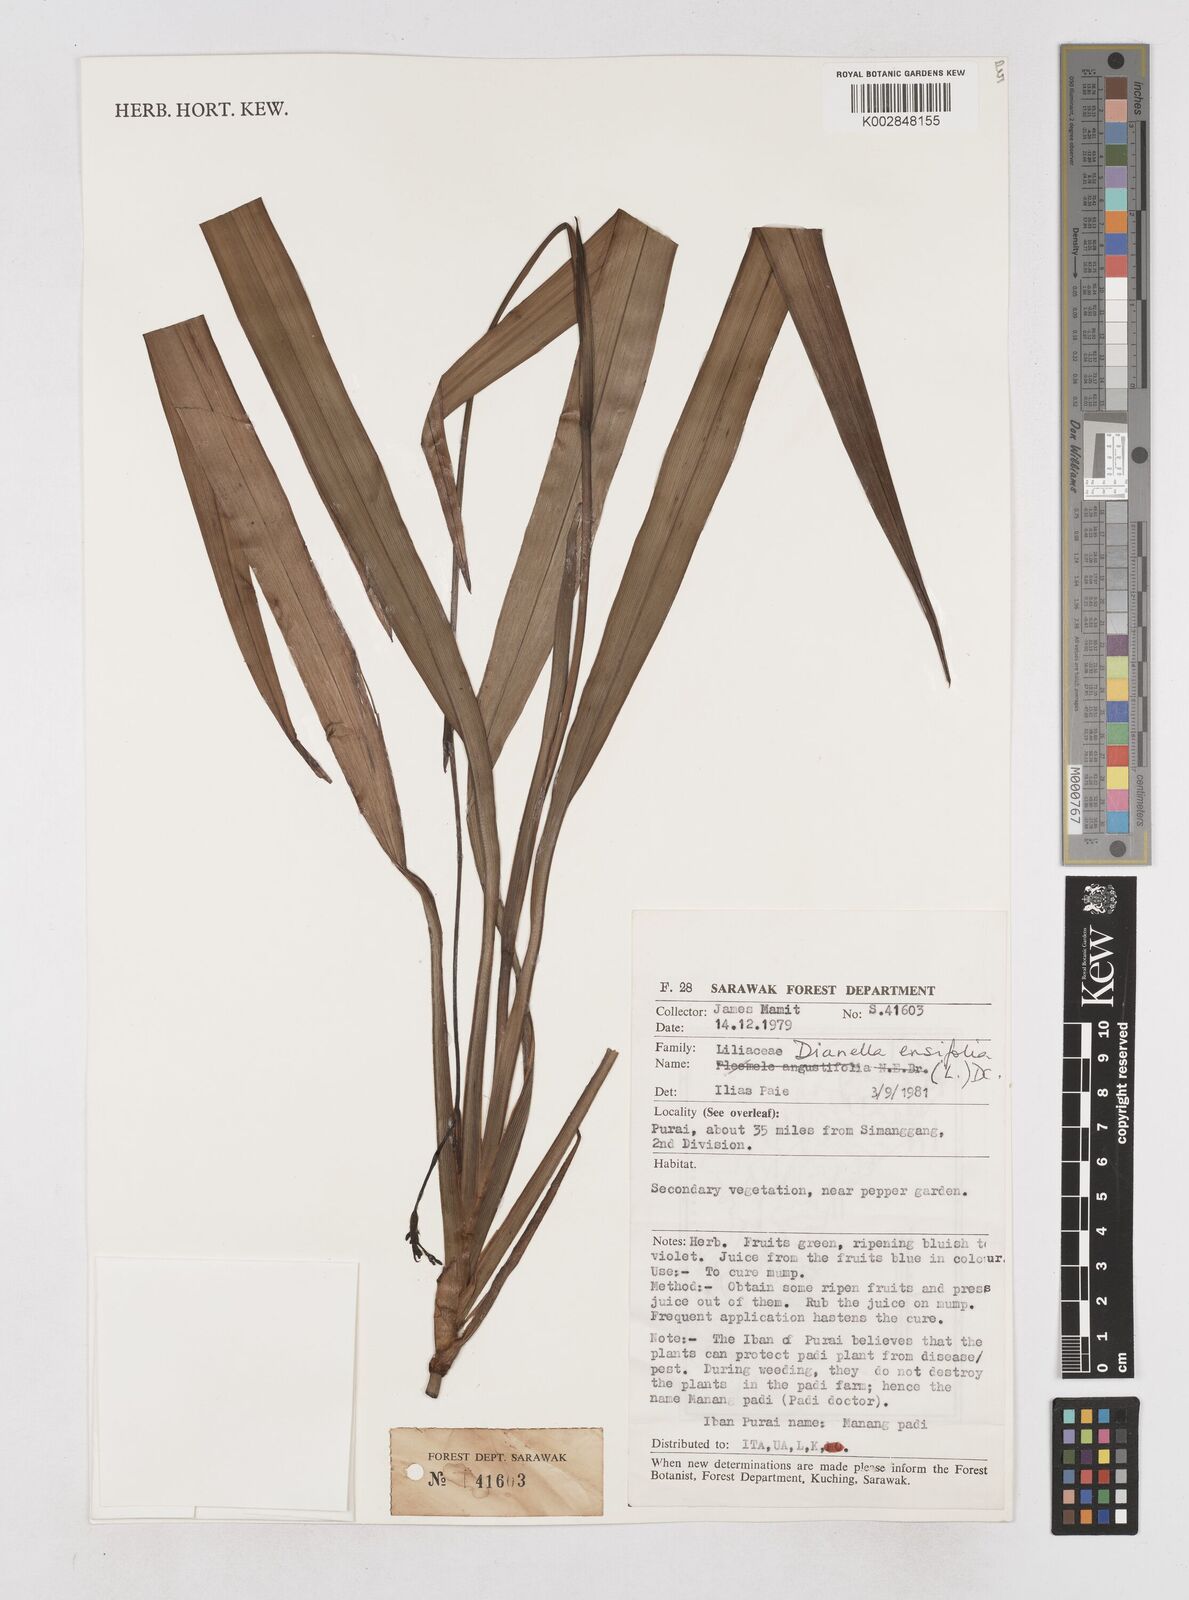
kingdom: Plantae
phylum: Tracheophyta
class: Liliopsida
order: Asparagales
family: Asphodelaceae
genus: Dianella
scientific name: Dianella ensifolia
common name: New zealand lilyplant
